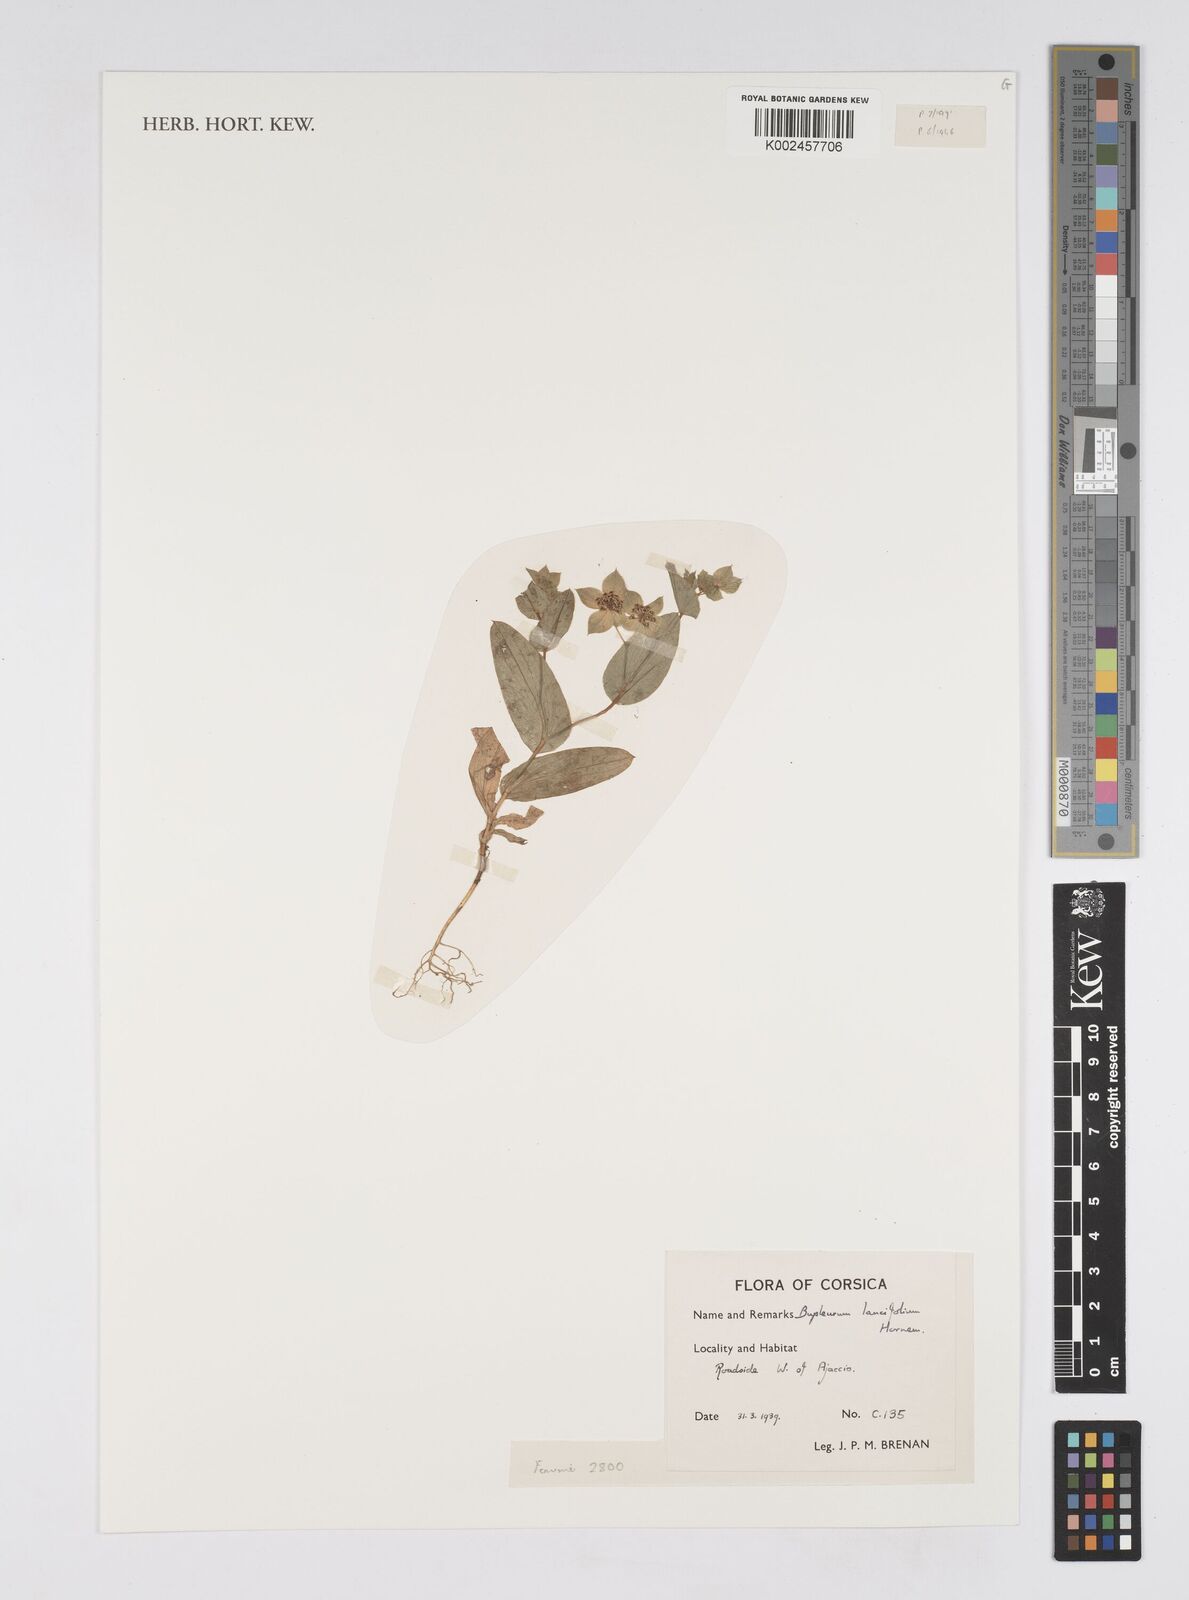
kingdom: Plantae
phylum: Tracheophyta
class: Magnoliopsida
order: Apiales
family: Apiaceae
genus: Bupleurum
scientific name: Bupleurum lancifolium
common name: False thorow-wax
